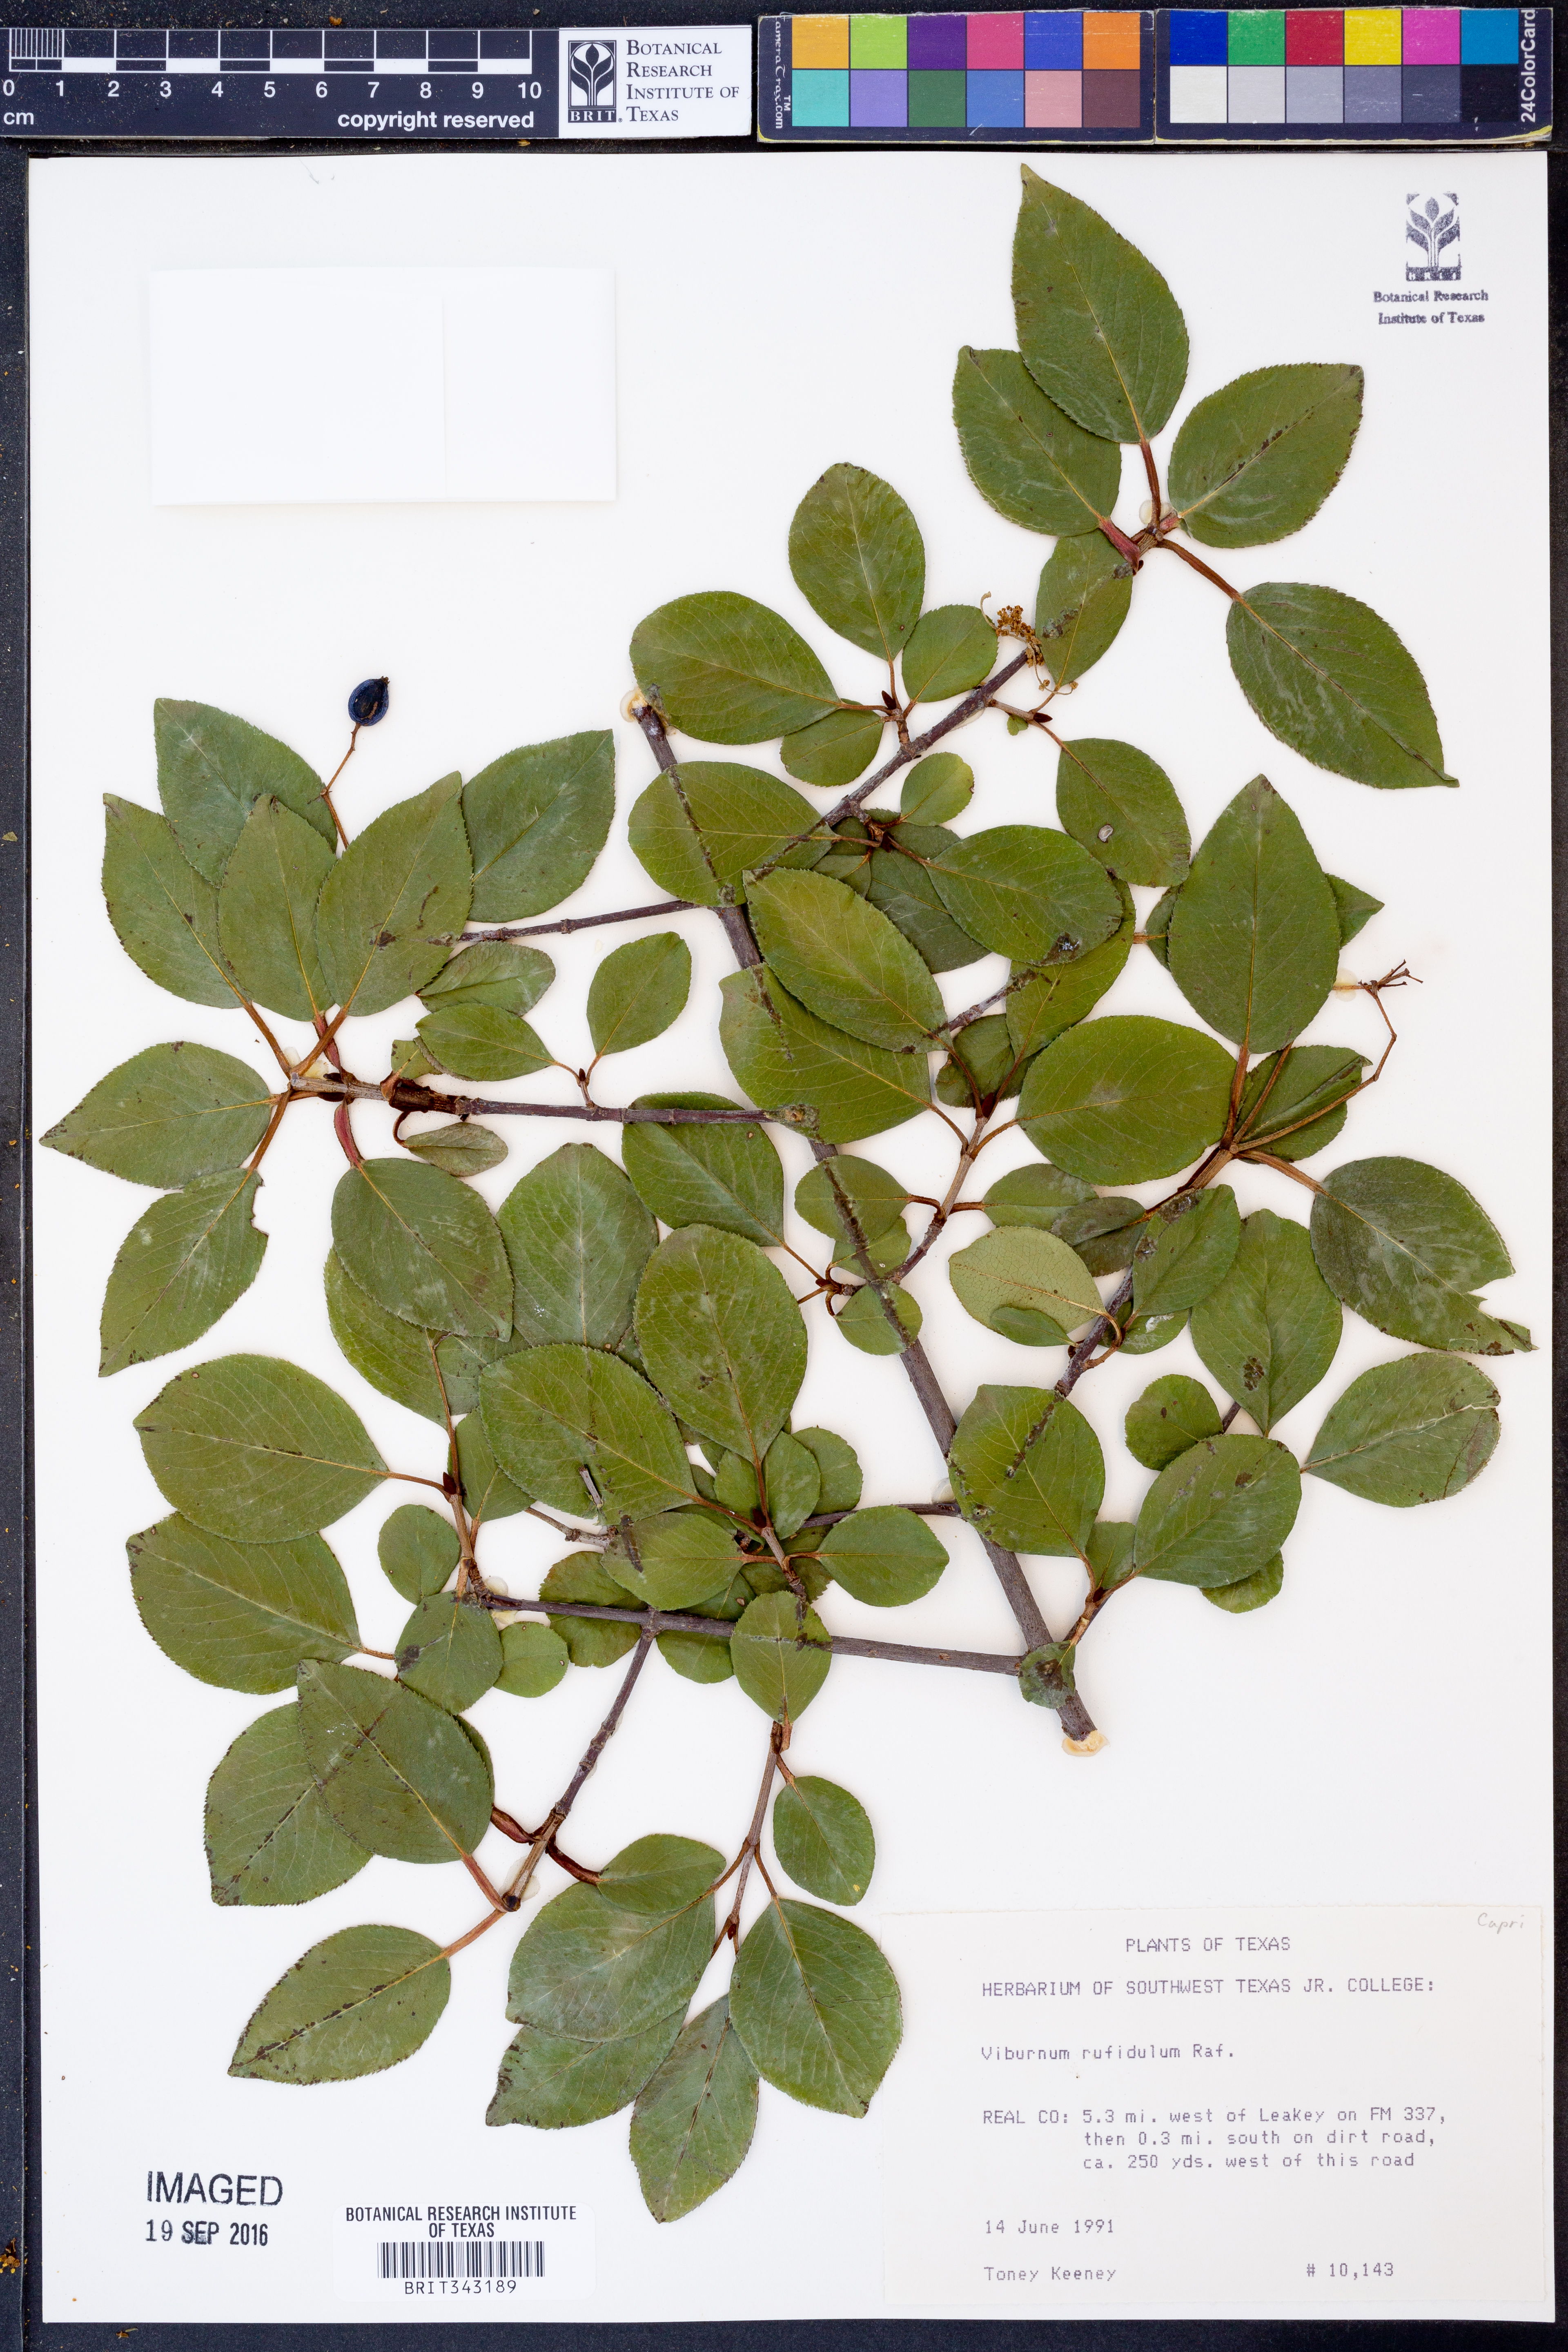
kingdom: Plantae
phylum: Tracheophyta
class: Magnoliopsida
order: Dipsacales
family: Viburnaceae
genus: Viburnum
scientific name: Viburnum rufidulum
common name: Blue haw
